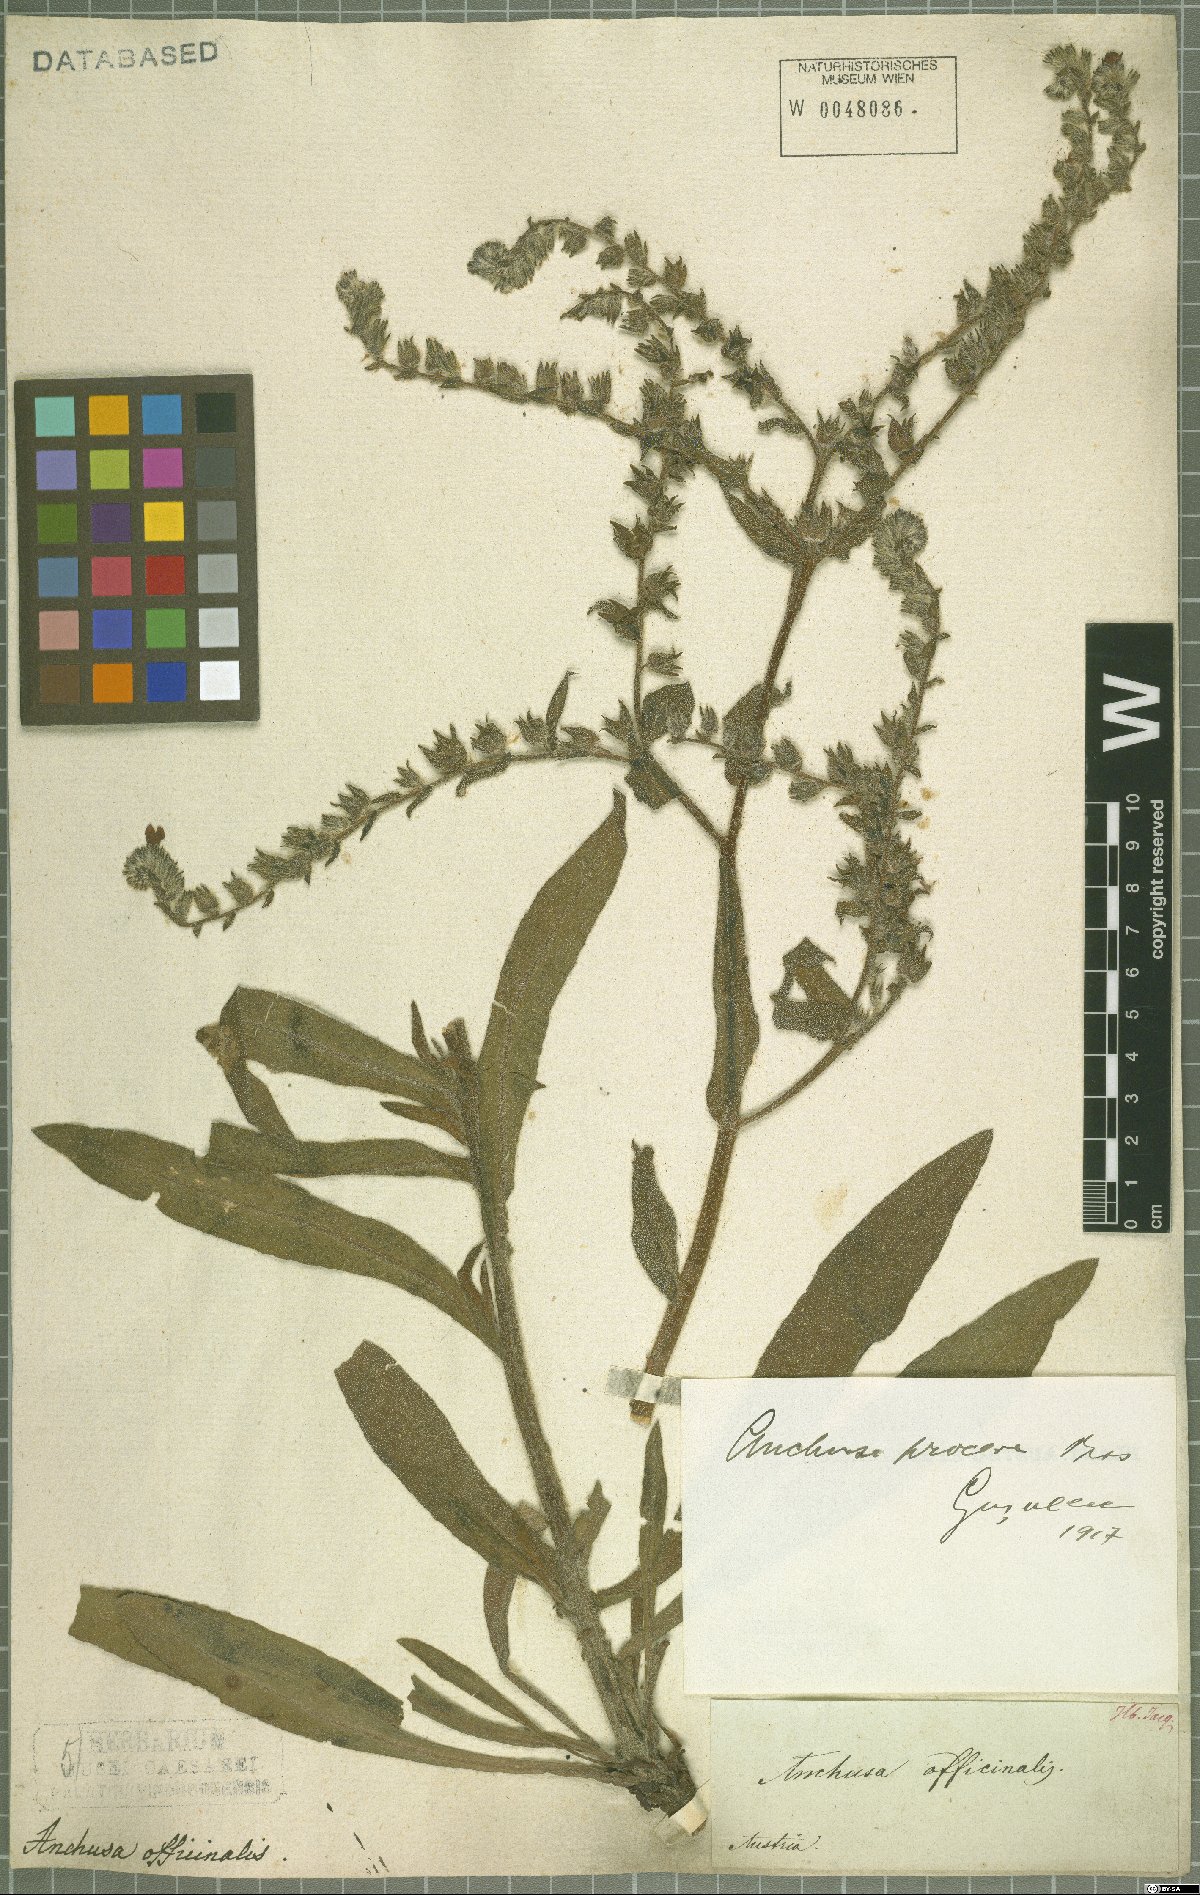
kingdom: Plantae
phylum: Tracheophyta
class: Magnoliopsida
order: Boraginales
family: Boraginaceae
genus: Anchusa
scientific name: Anchusa officinalis
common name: Alkanet
